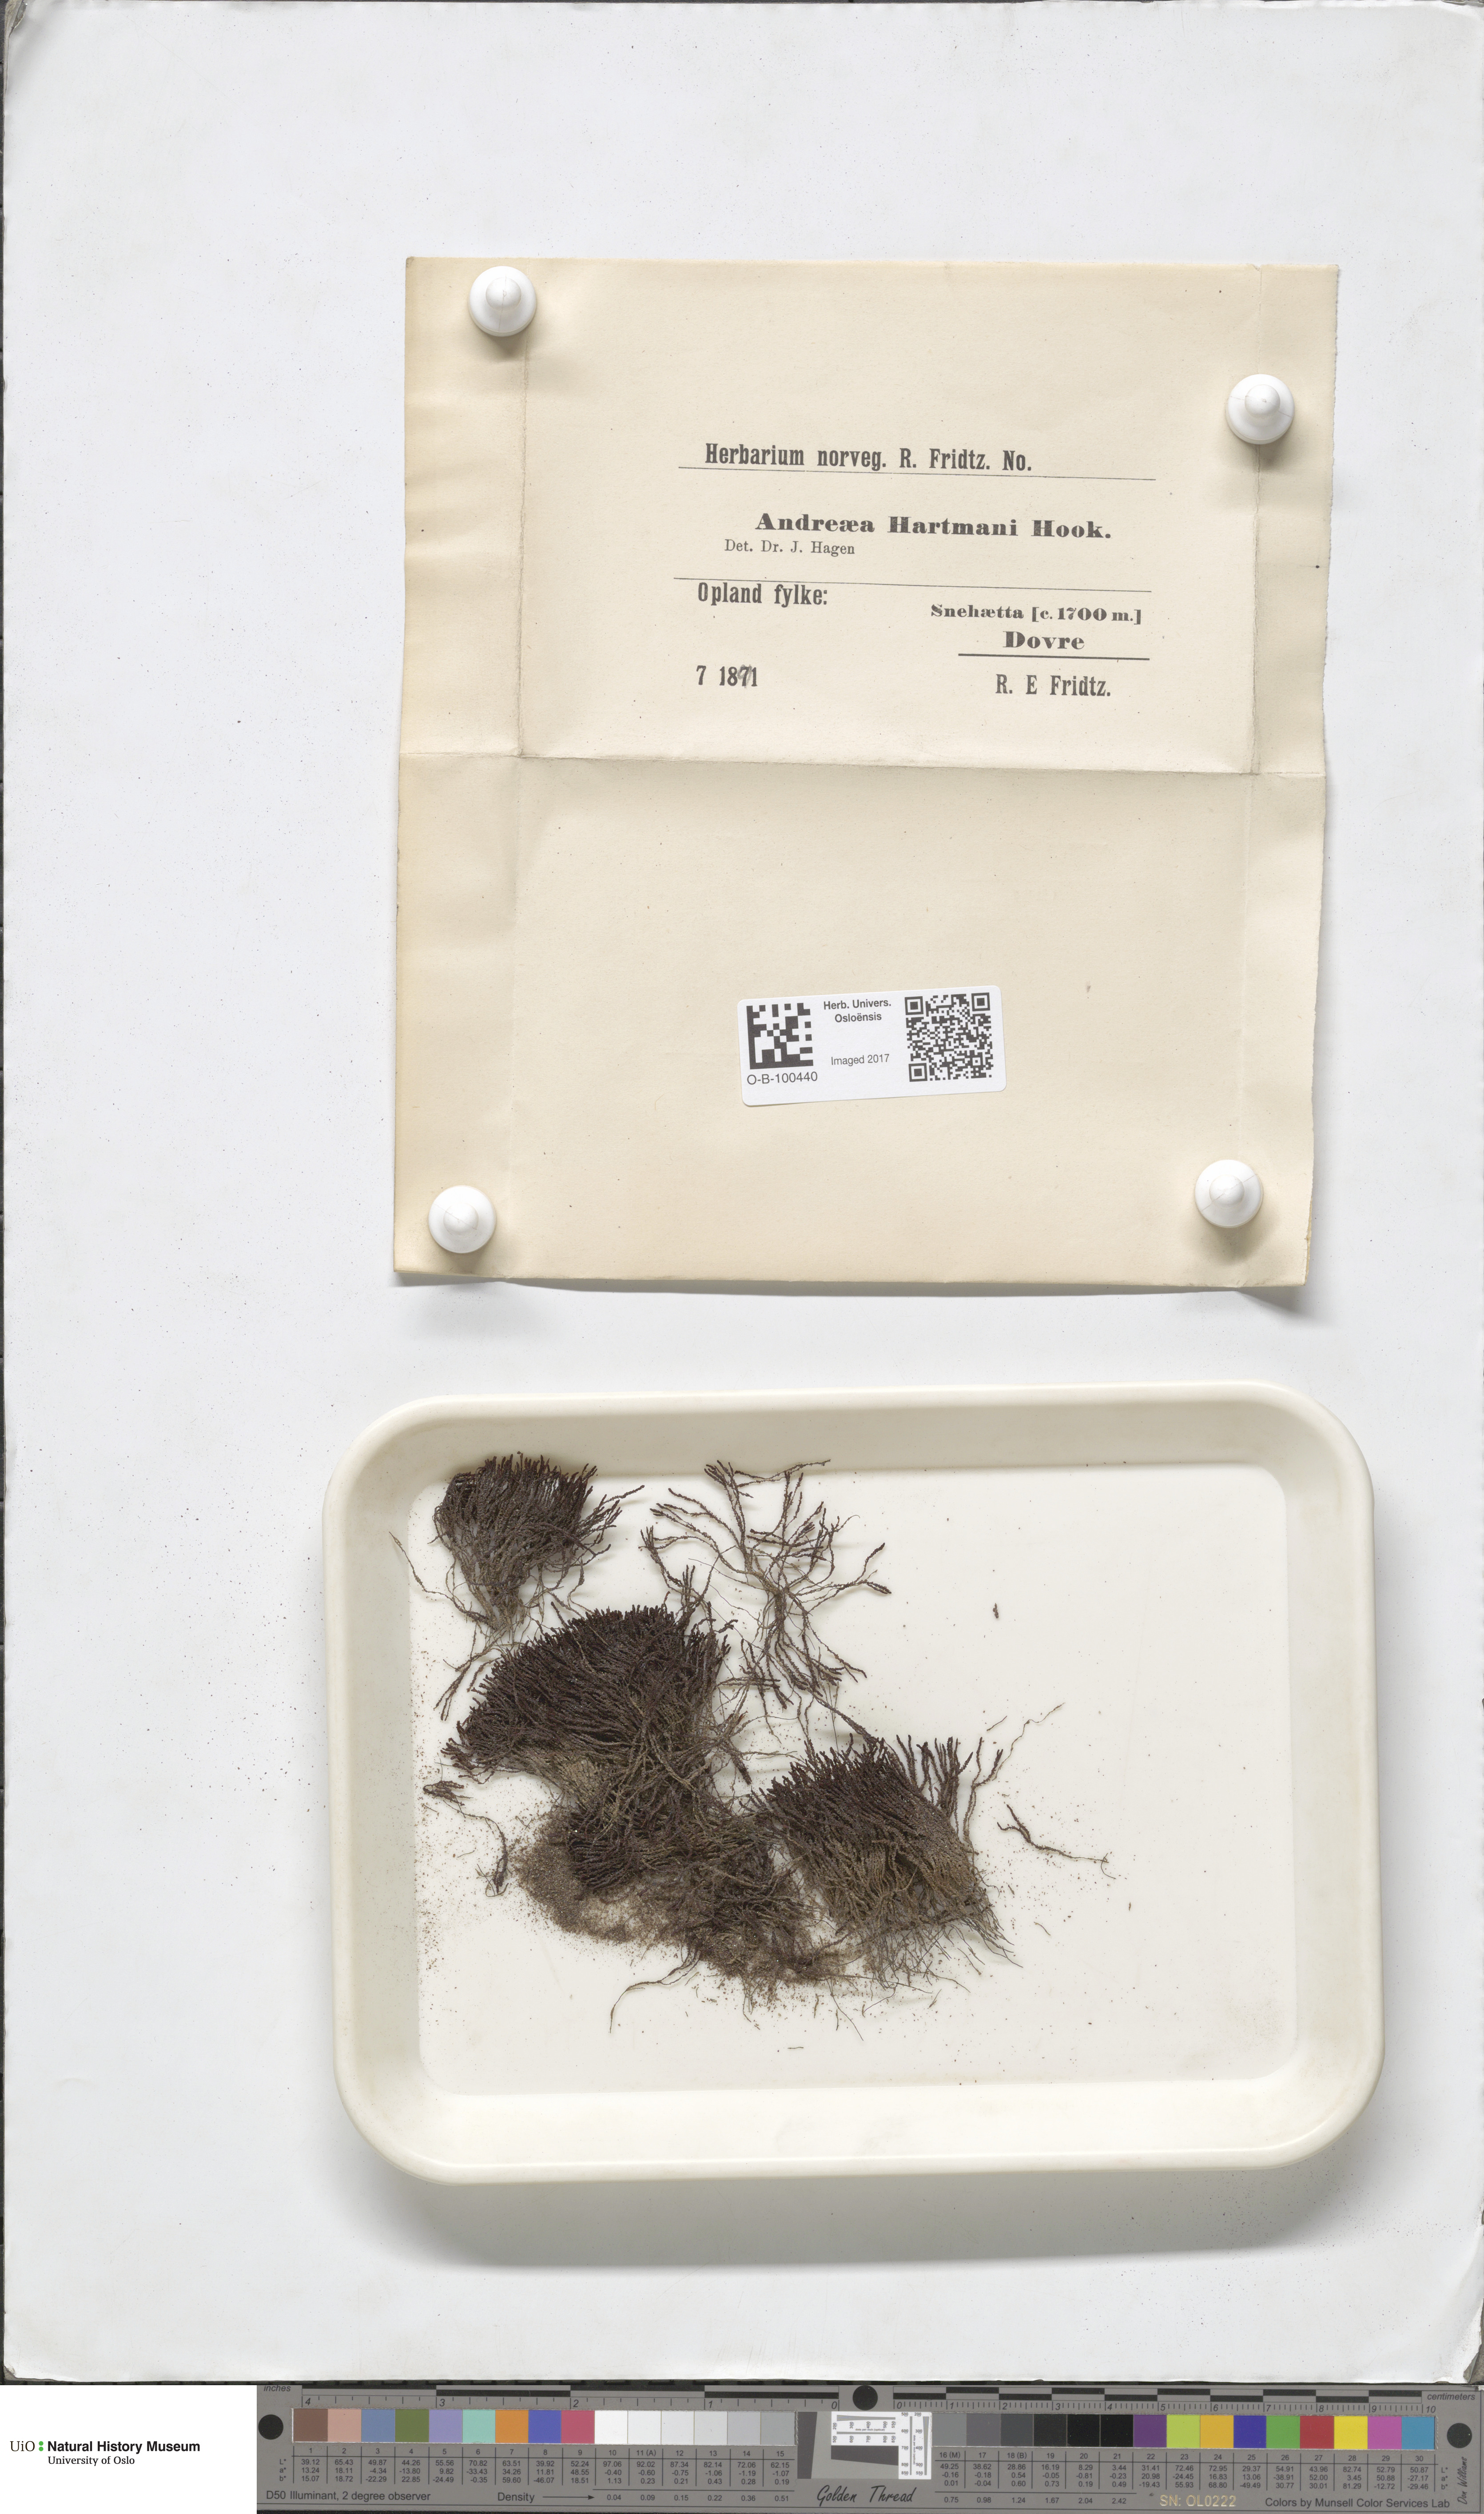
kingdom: Plantae
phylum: Bryophyta
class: Andreaeopsida
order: Andreaeales
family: Andreaeaceae
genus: Andreaea
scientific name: Andreaea alpina
